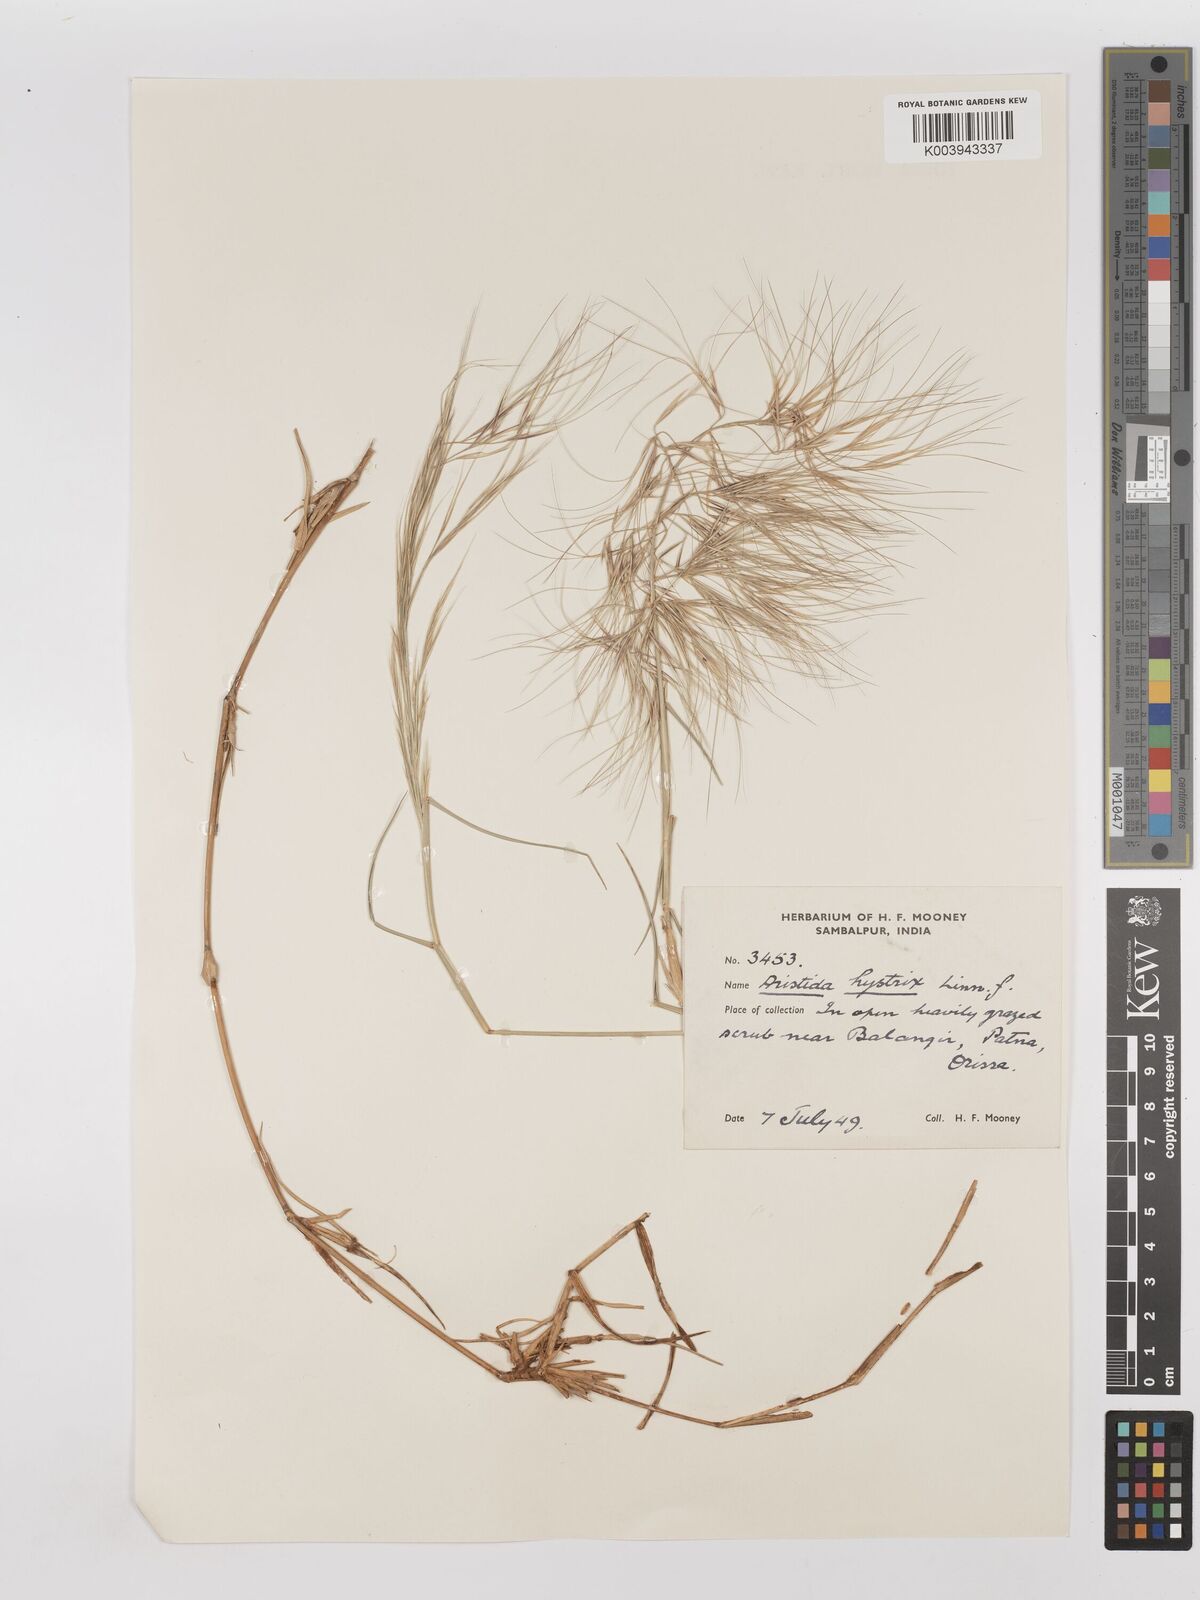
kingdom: Plantae
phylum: Tracheophyta
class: Liliopsida
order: Poales
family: Poaceae
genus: Aristida
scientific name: Aristida hystrix
